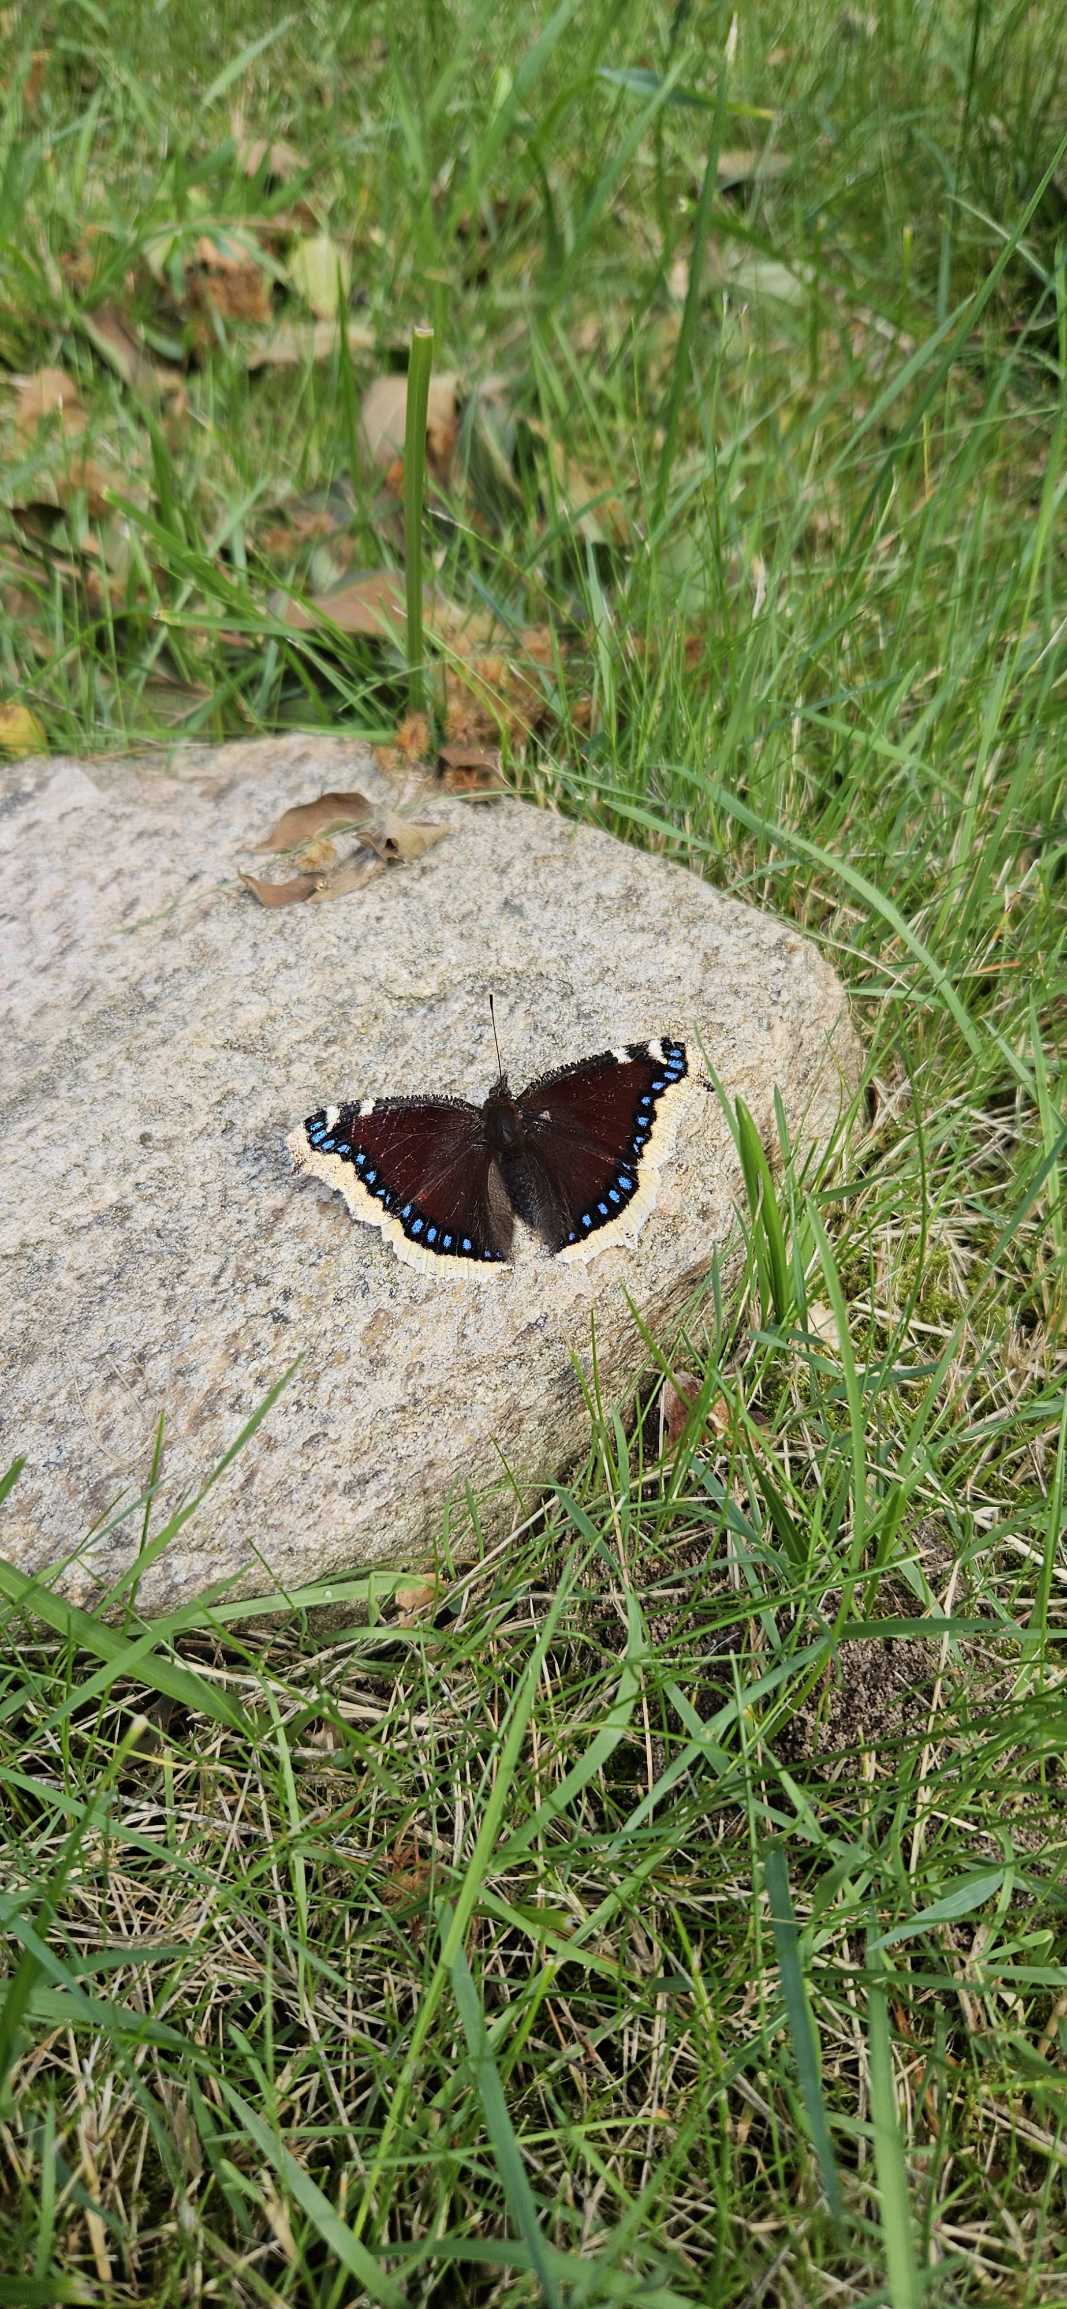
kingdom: Animalia
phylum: Arthropoda
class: Insecta
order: Lepidoptera
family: Nymphalidae
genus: Nymphalis
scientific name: Nymphalis antiopa
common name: Sørgekåbe
